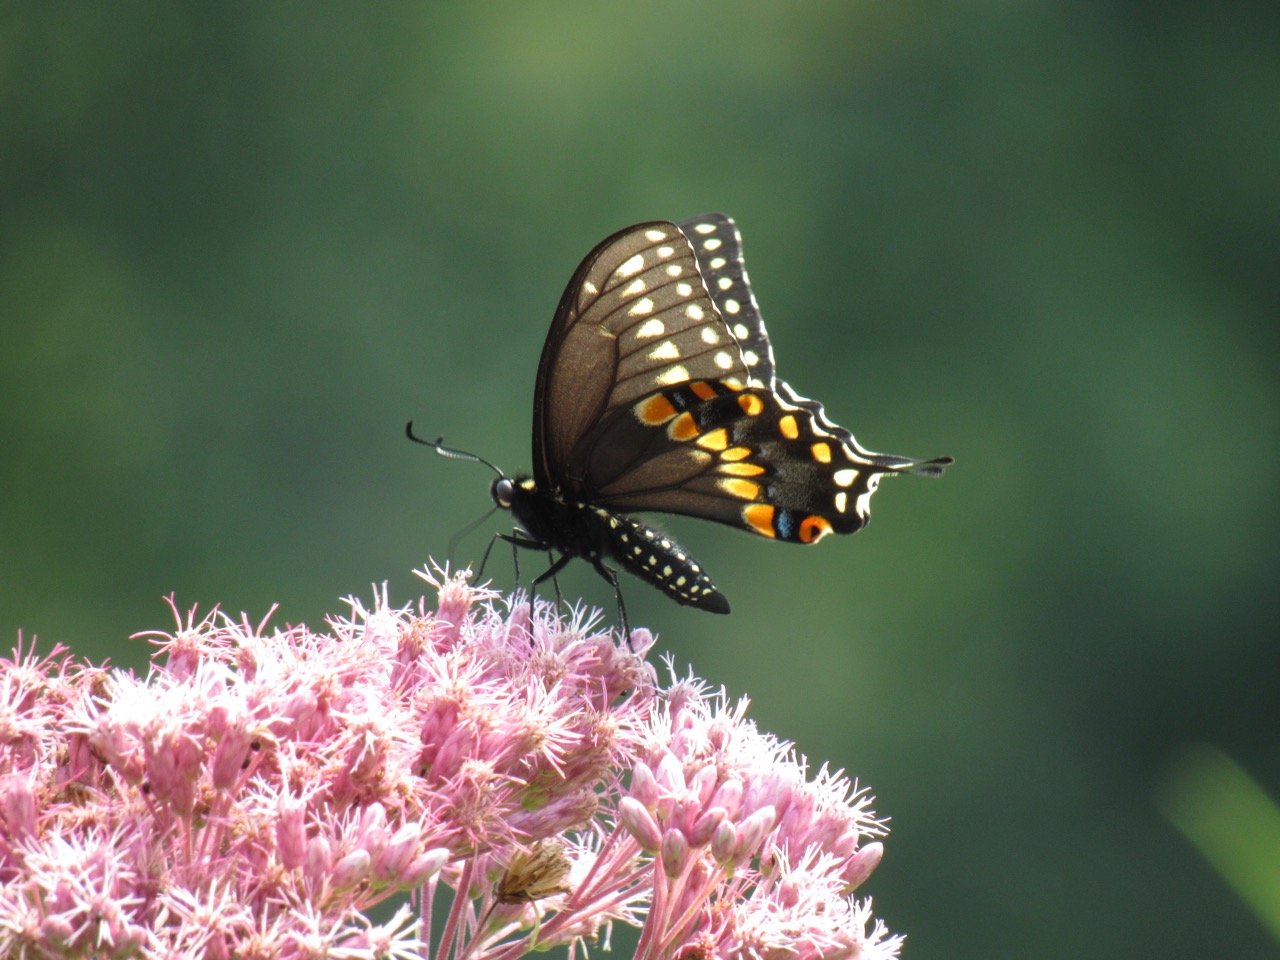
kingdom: Animalia
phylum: Arthropoda
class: Insecta
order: Lepidoptera
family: Papilionidae
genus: Papilio
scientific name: Papilio polyxenes
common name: Black Swallowtail
